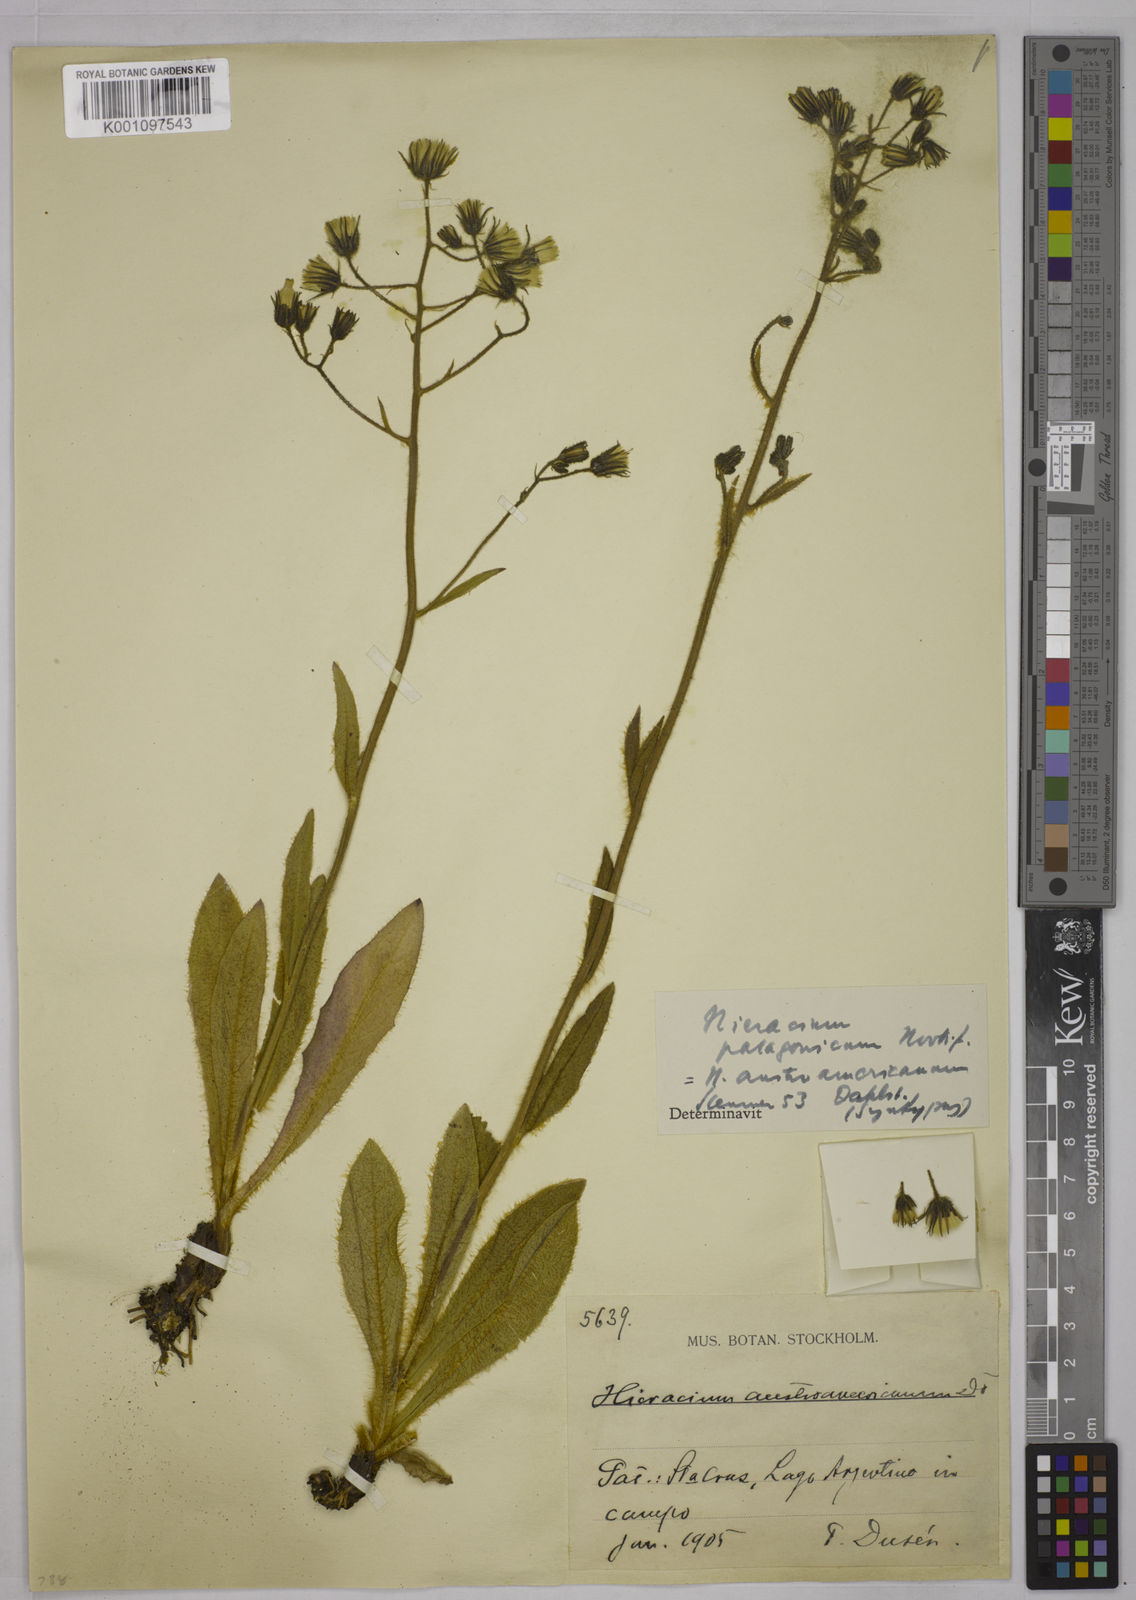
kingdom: Plantae
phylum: Tracheophyta
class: Magnoliopsida
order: Asterales
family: Asteraceae
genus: Hieracium
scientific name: Hieracium patagonicum
